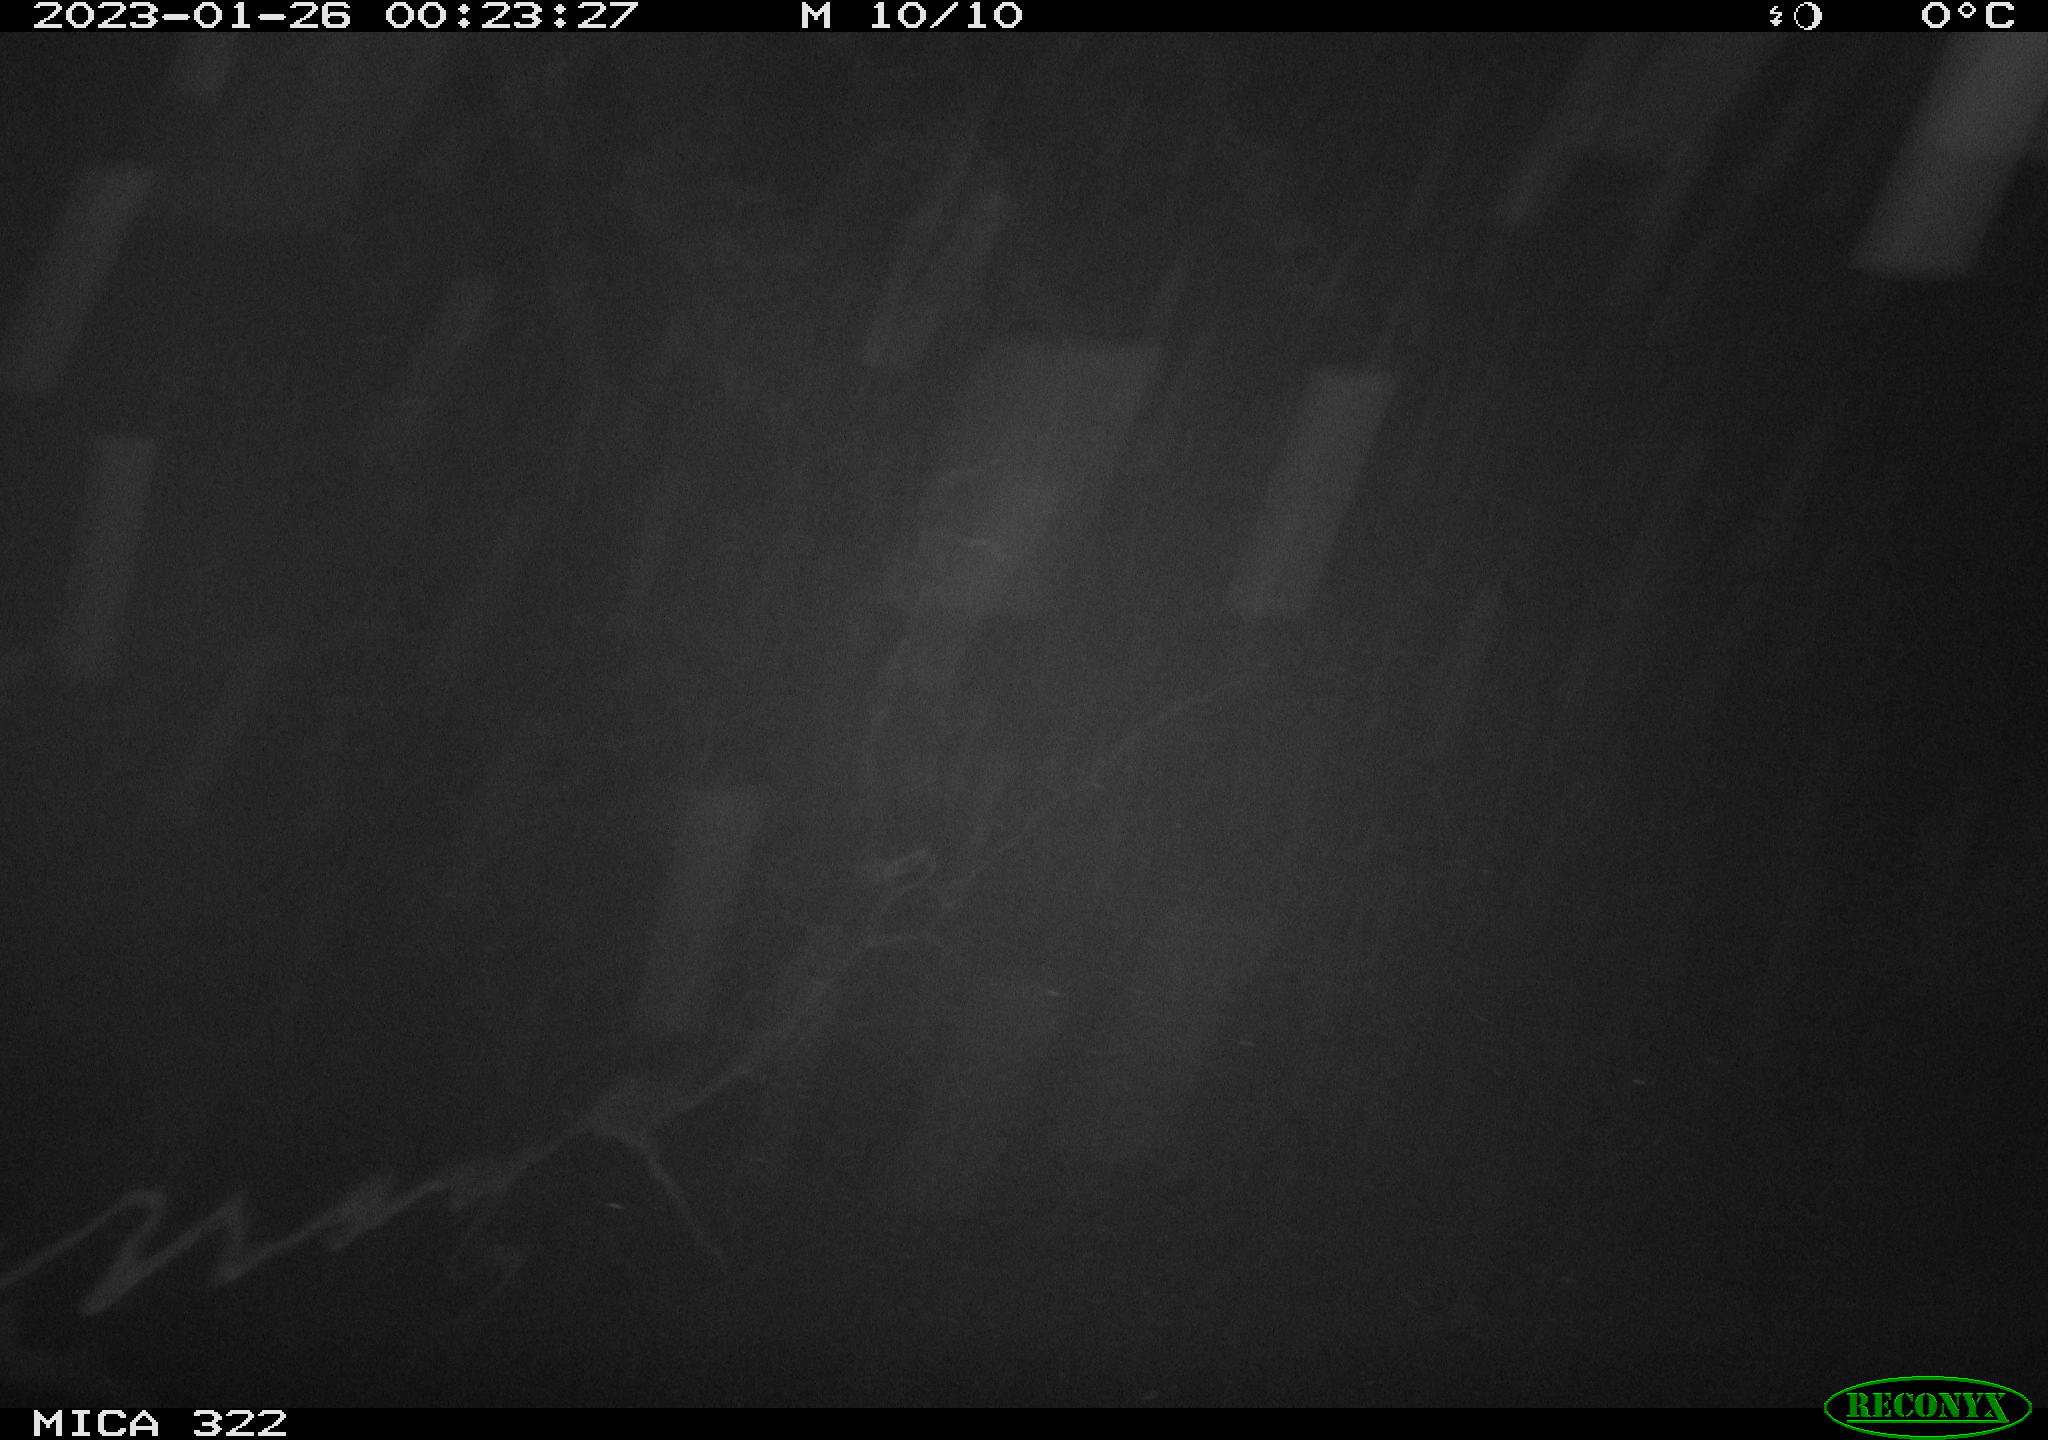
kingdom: Animalia
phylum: Chordata
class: Mammalia
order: Rodentia
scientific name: Rodentia
